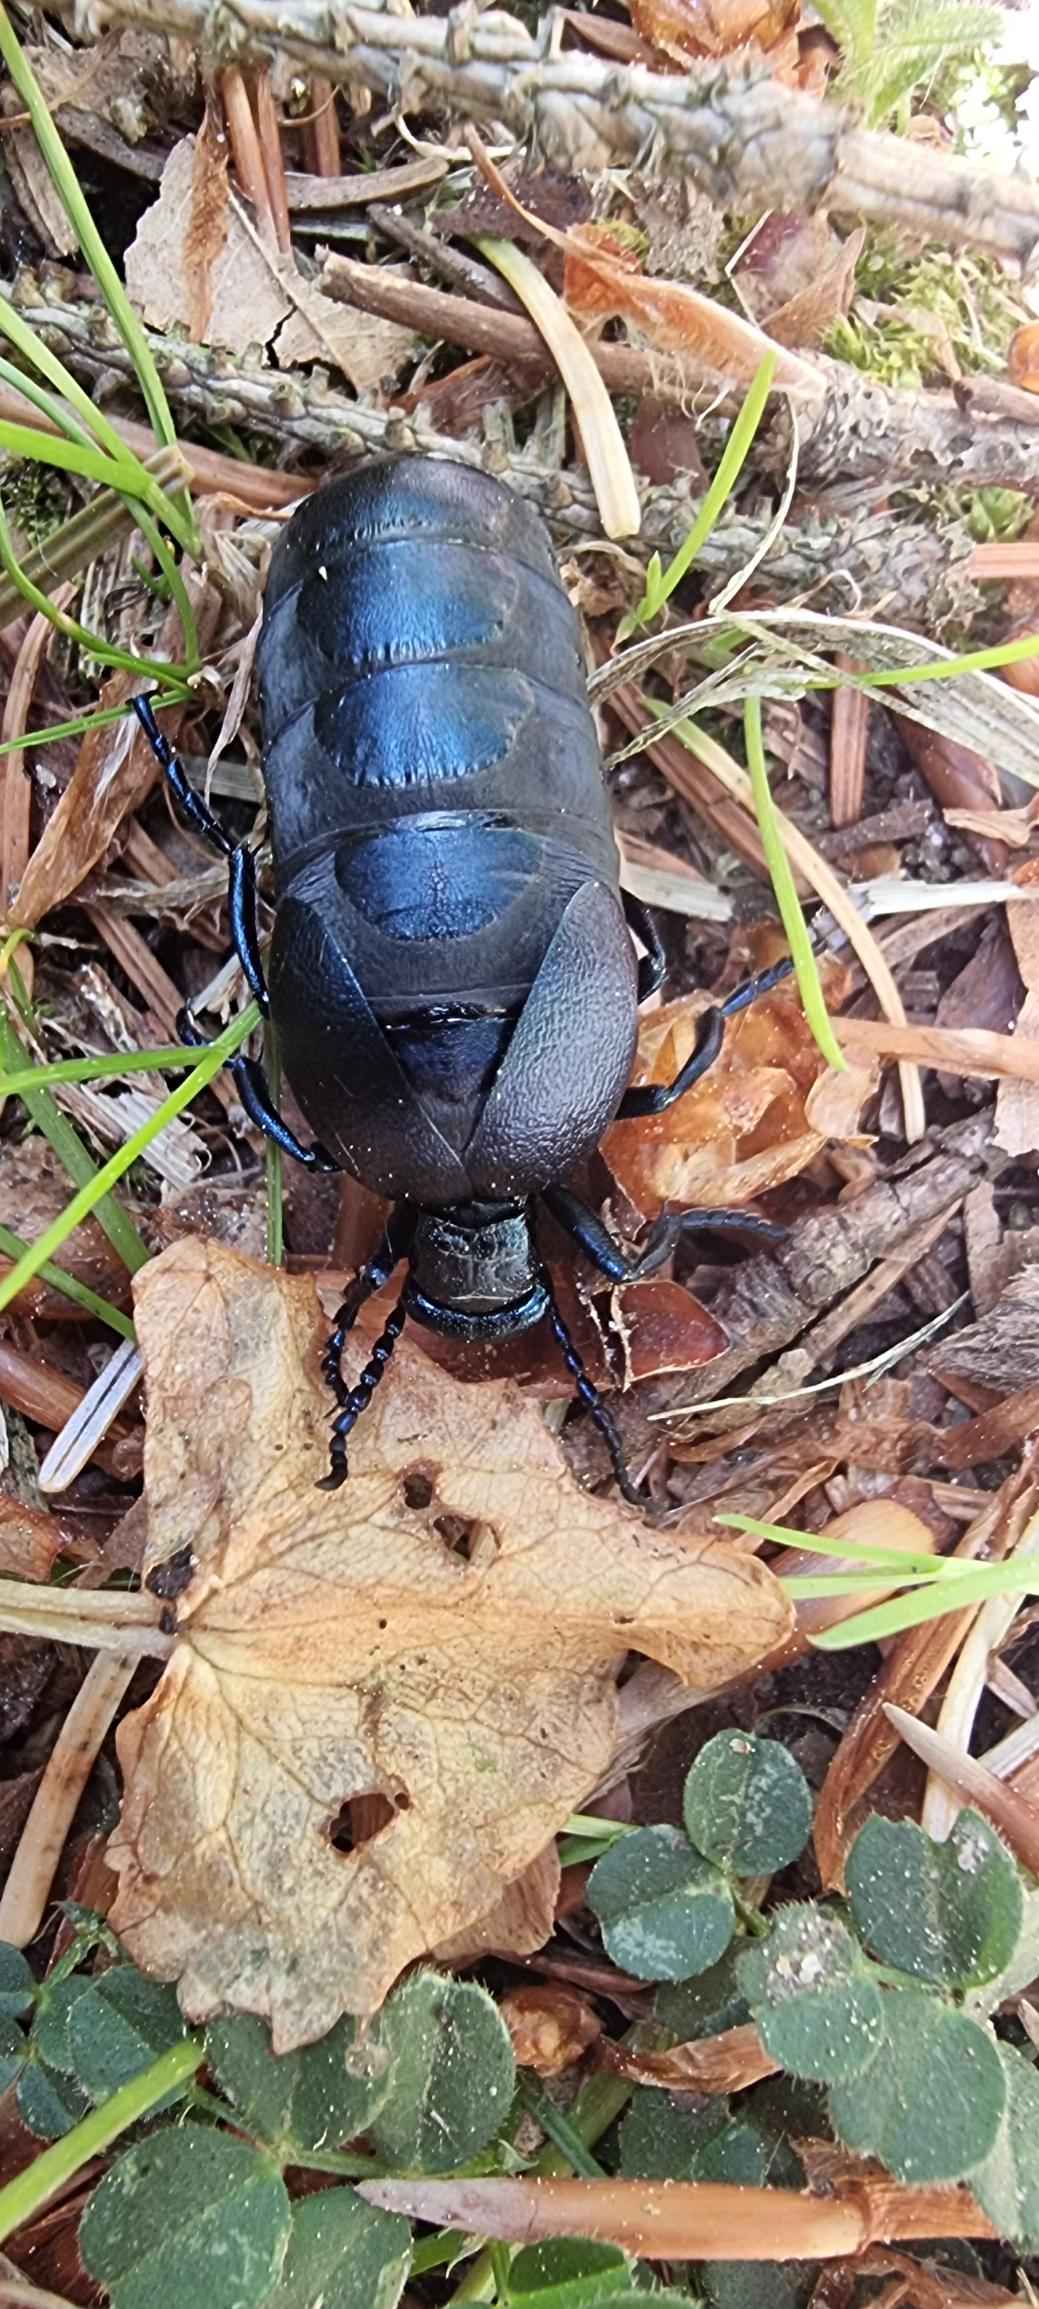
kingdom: Animalia
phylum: Arthropoda
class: Insecta
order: Coleoptera
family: Meloidae
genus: Meloe
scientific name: Meloe violaceus
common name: Blå oliebille
